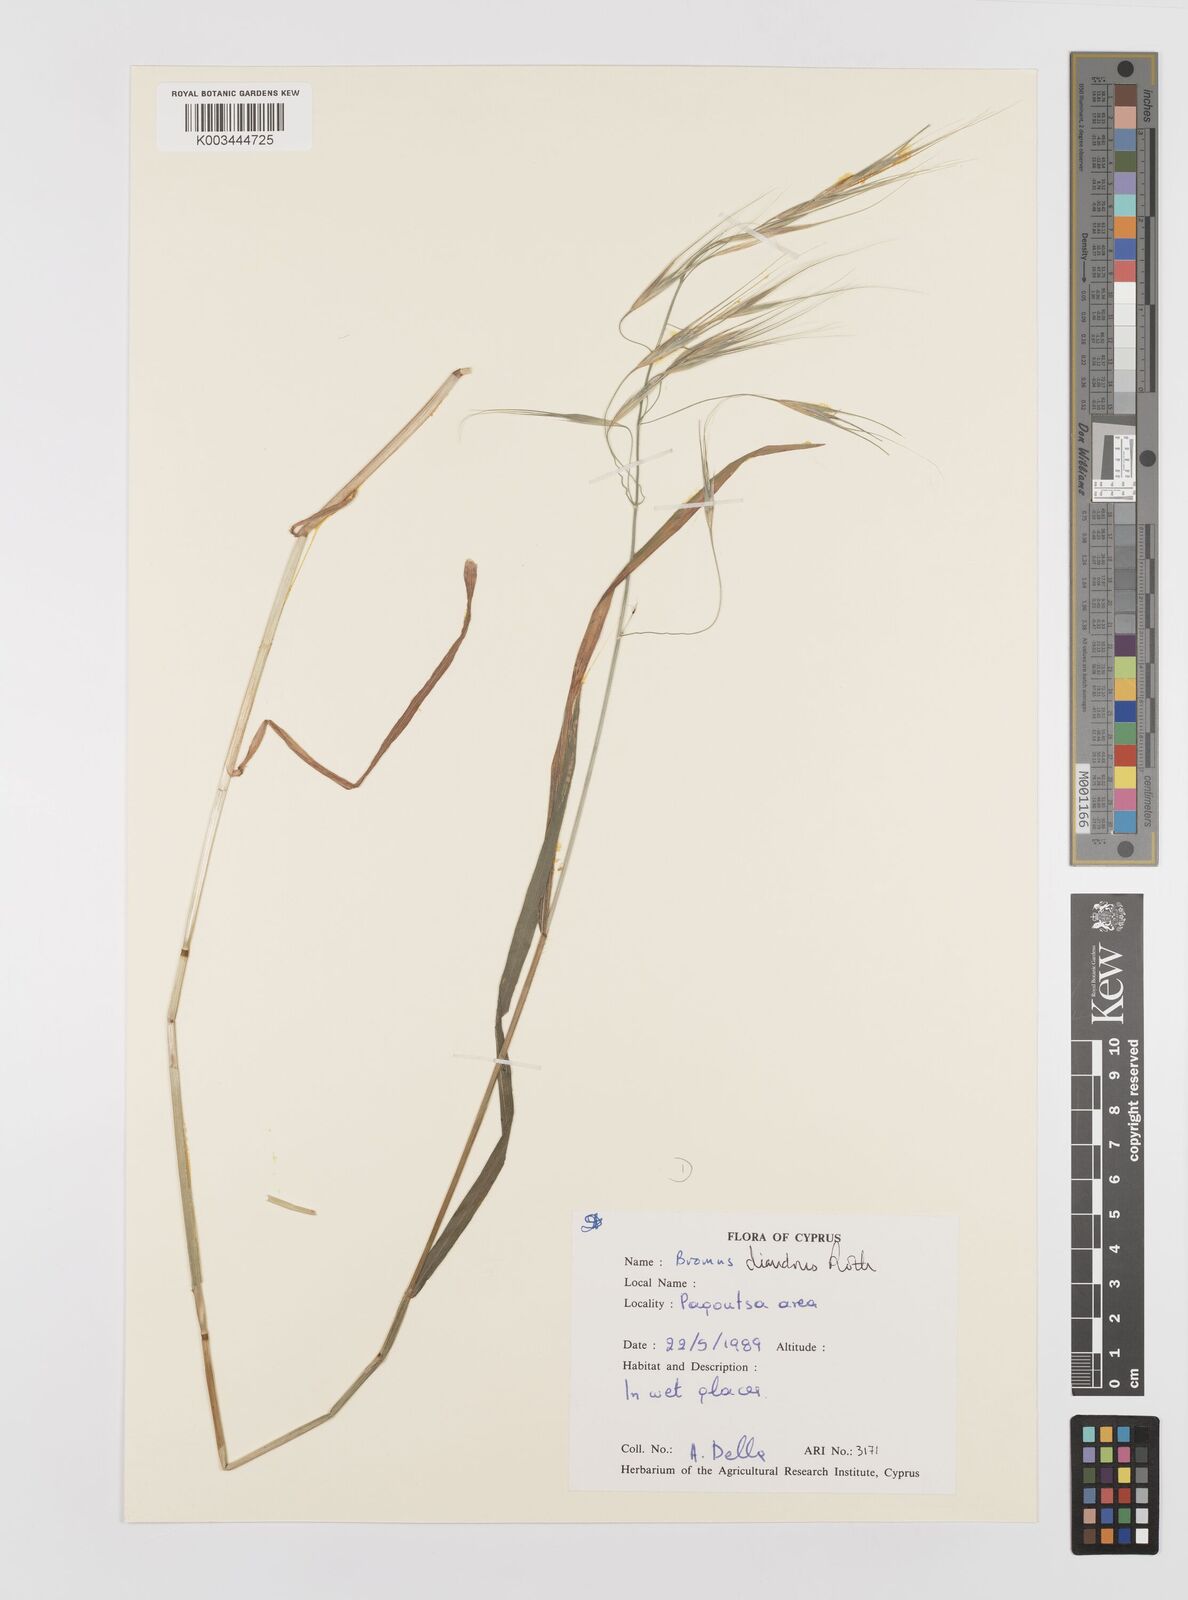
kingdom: Plantae
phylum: Tracheophyta
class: Liliopsida
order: Poales
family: Poaceae
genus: Bromus
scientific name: Bromus diandrus
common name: Ripgut brome
